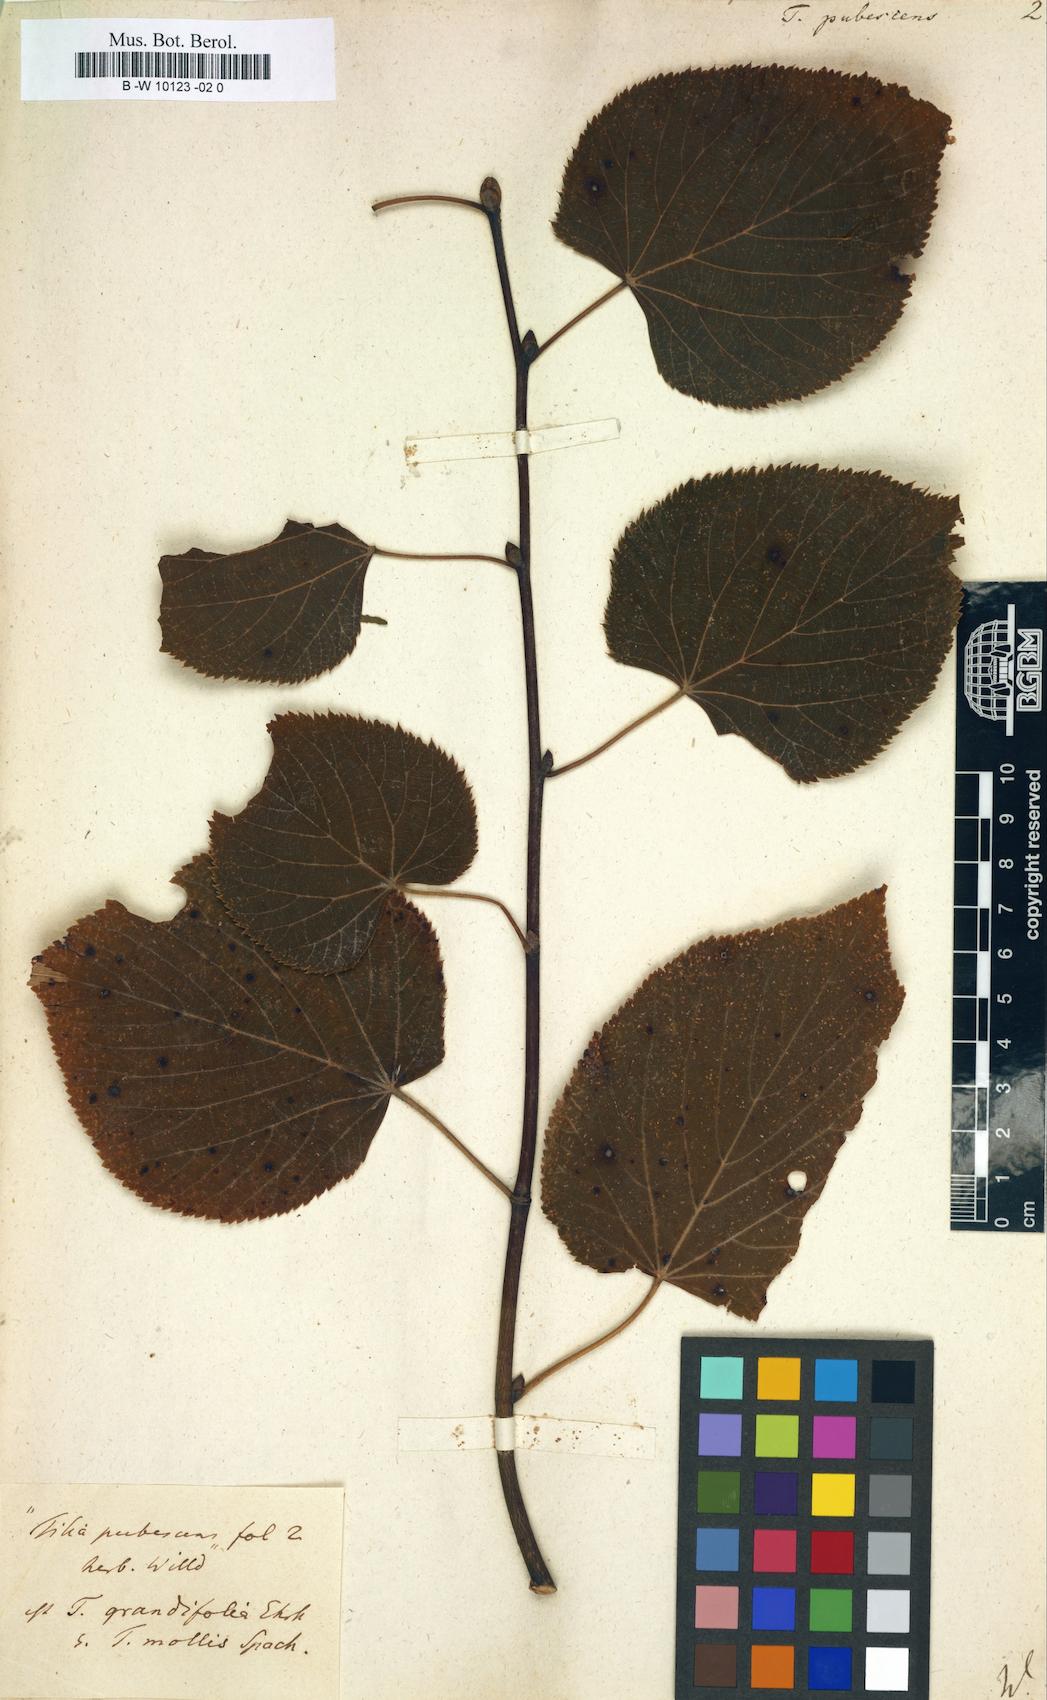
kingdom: Plantae
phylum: Tracheophyta
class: Magnoliopsida
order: Malvales
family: Malvaceae
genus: Tilia
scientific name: Tilia
